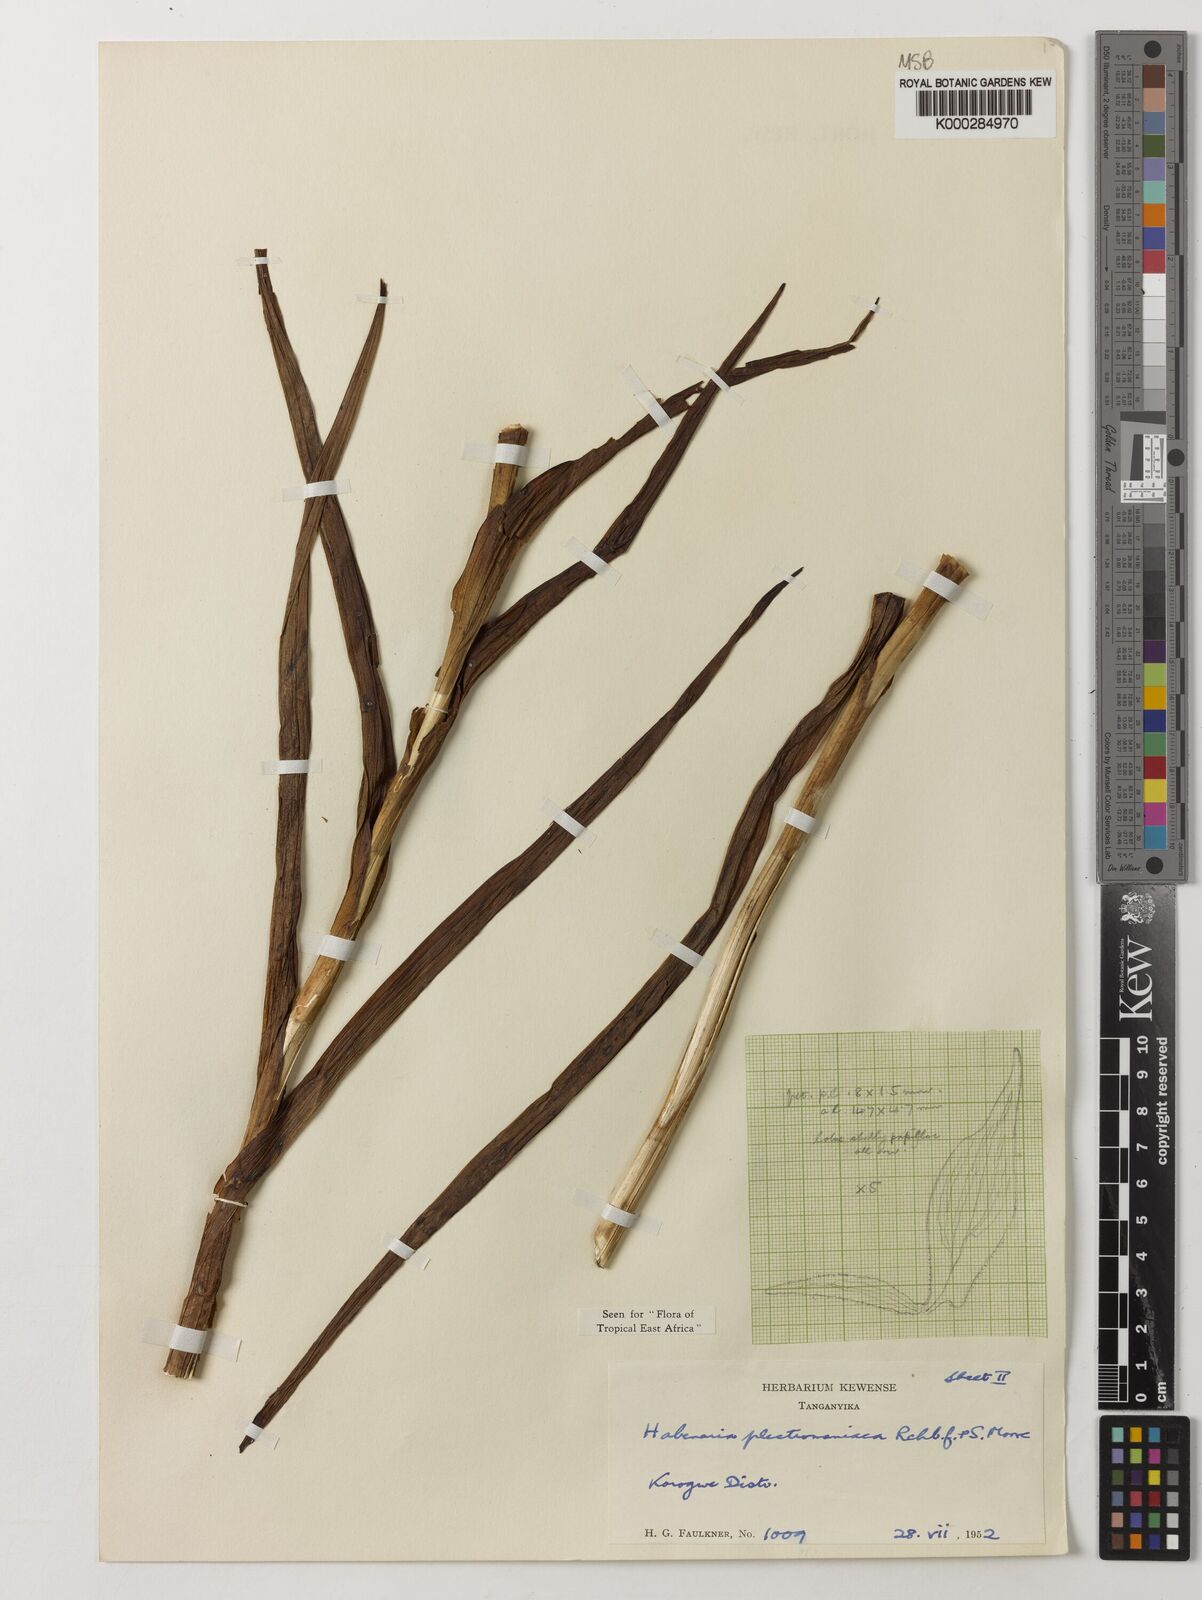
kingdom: Plantae
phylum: Tracheophyta
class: Liliopsida
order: Asparagales
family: Orchidaceae
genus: Habenaria
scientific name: Habenaria plectromaniaca
